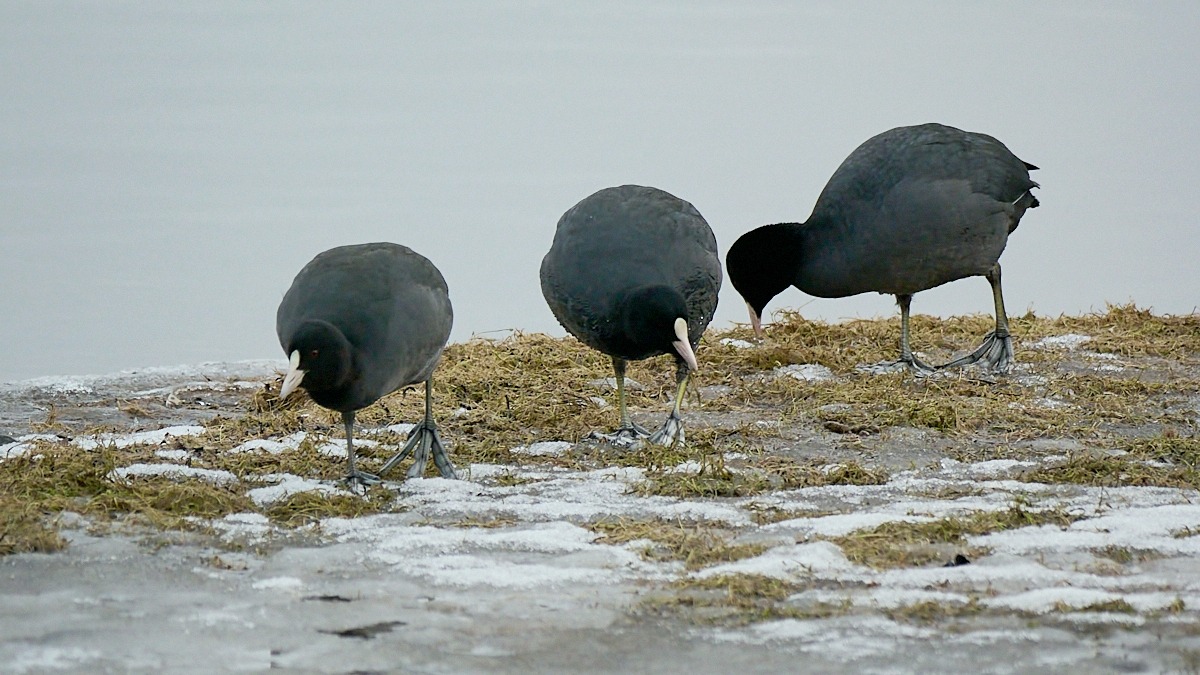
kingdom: Animalia
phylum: Chordata
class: Aves
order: Gruiformes
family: Rallidae
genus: Fulica
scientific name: Fulica atra
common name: Blishøne
